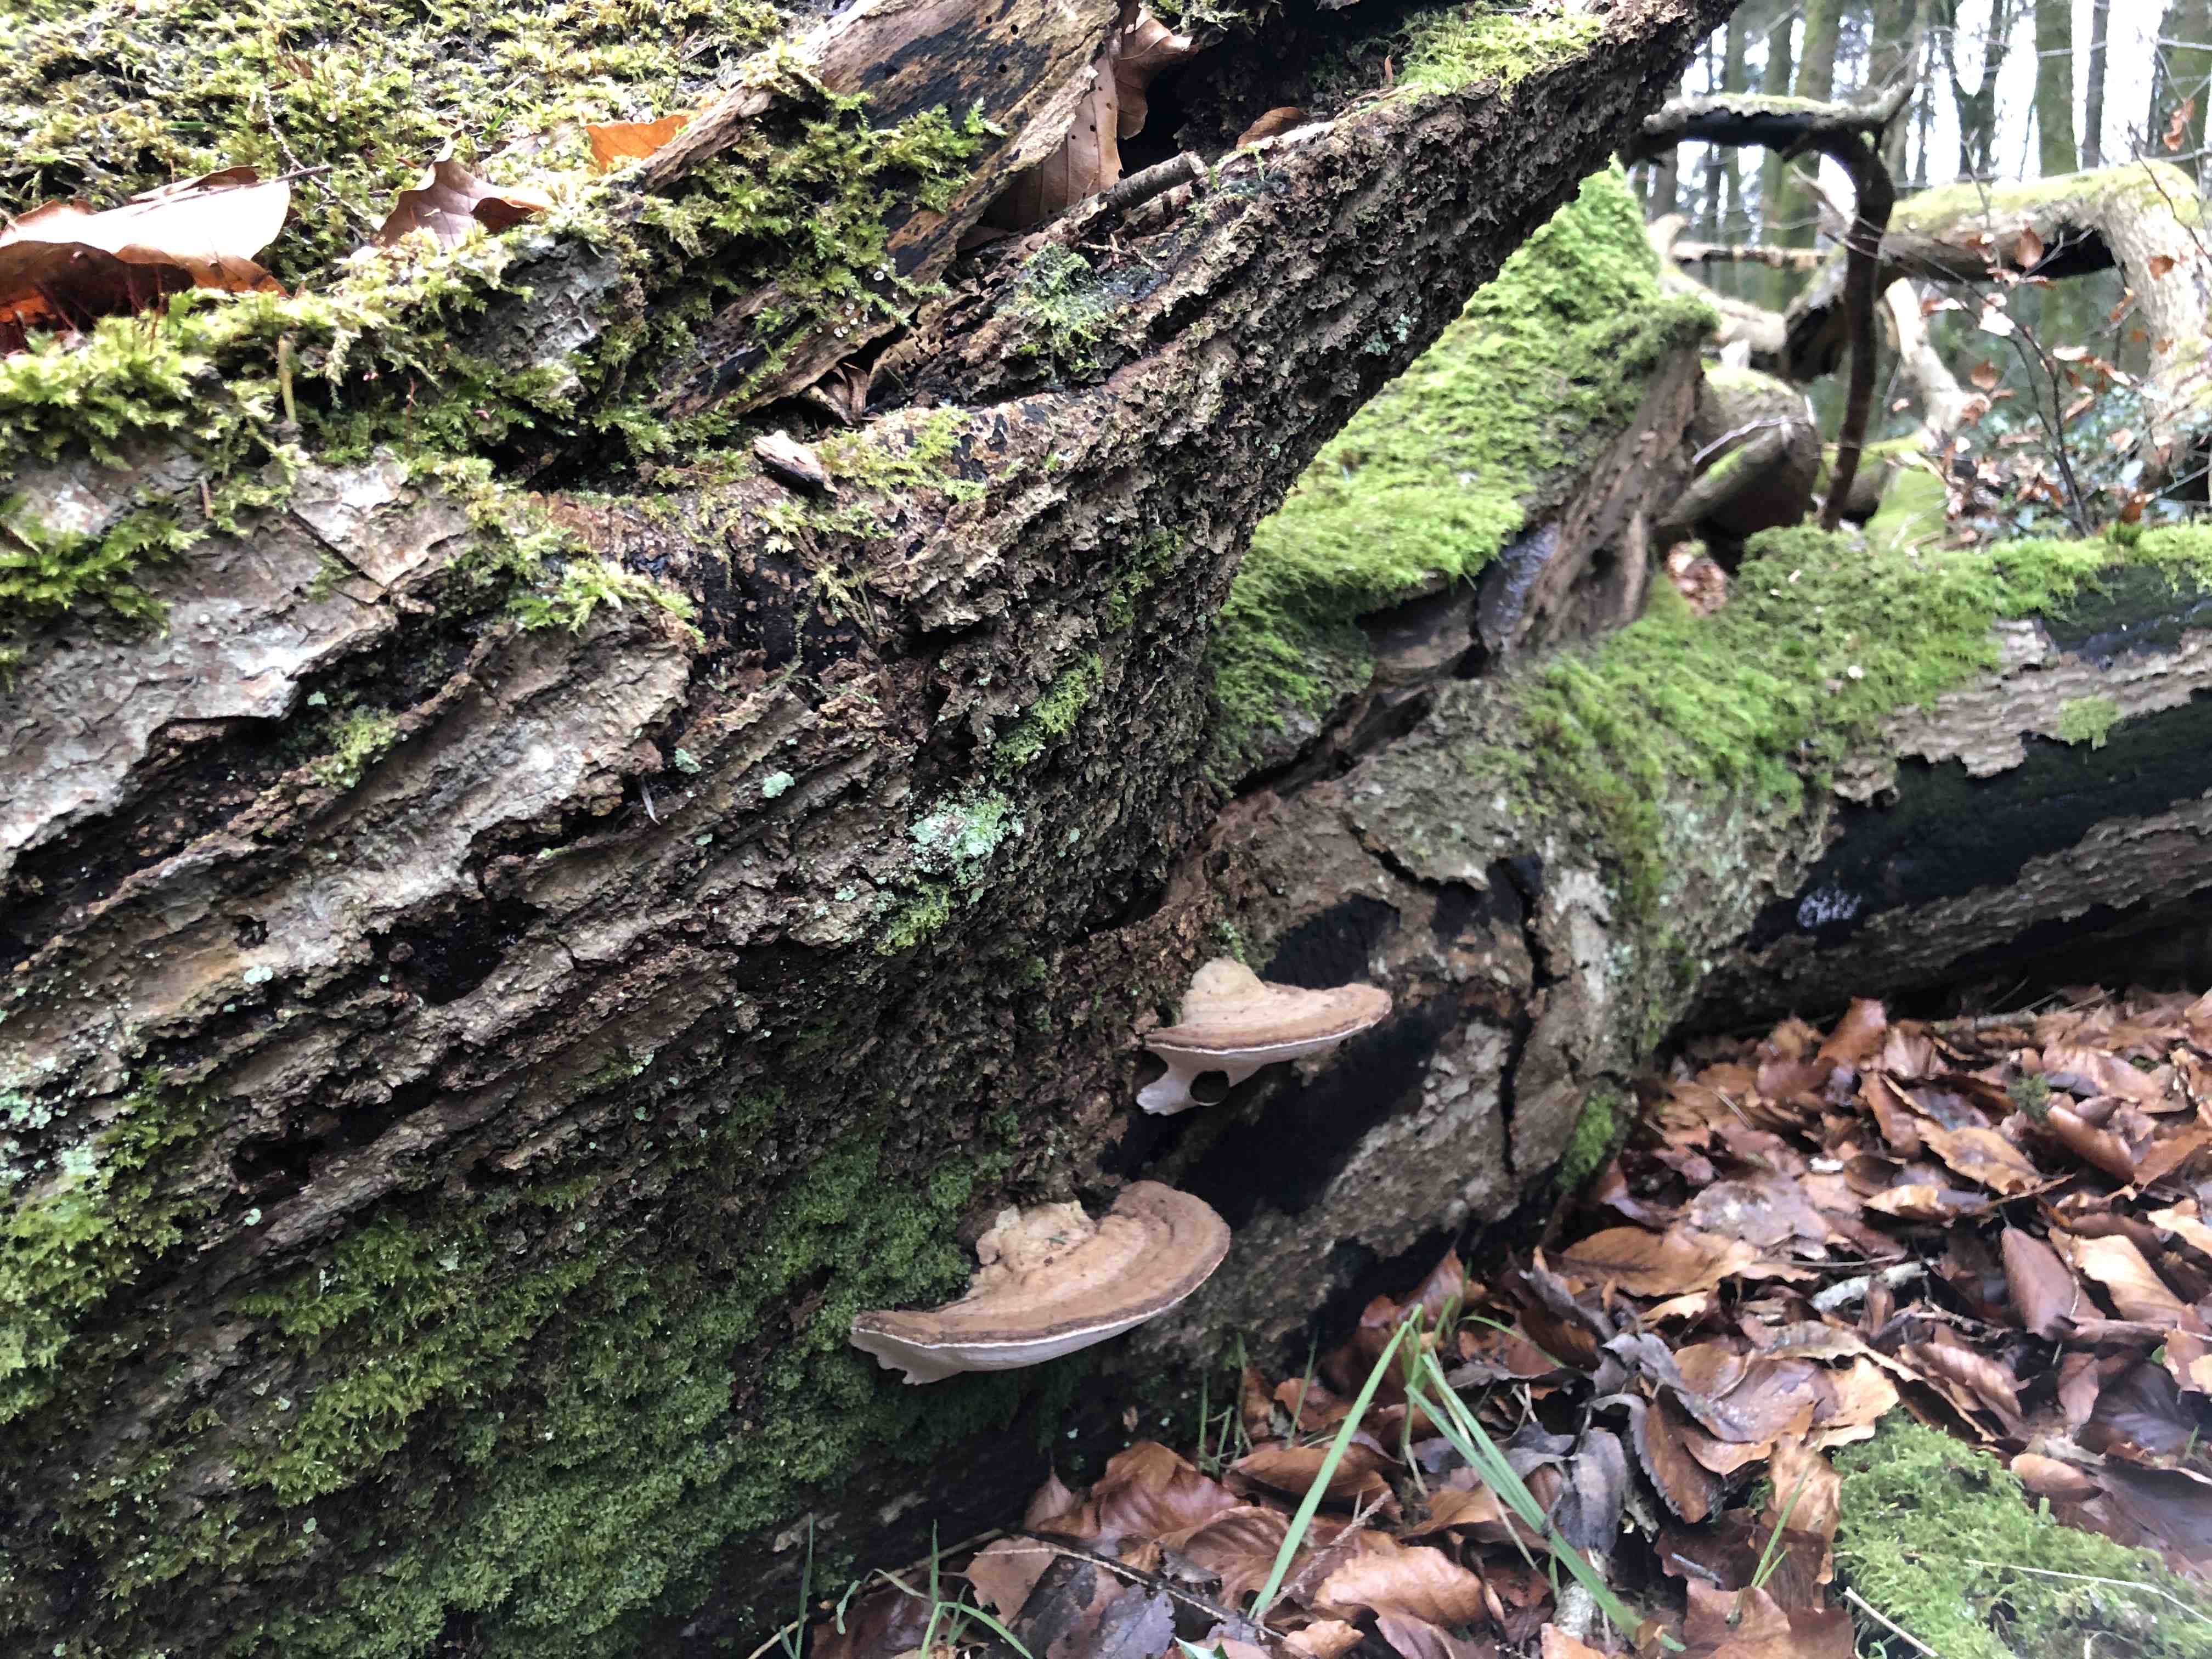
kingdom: Fungi
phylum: Basidiomycota
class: Agaricomycetes
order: Polyporales
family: Polyporaceae
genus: Ganoderma
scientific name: Ganoderma applanatum
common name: flad lakporesvamp
